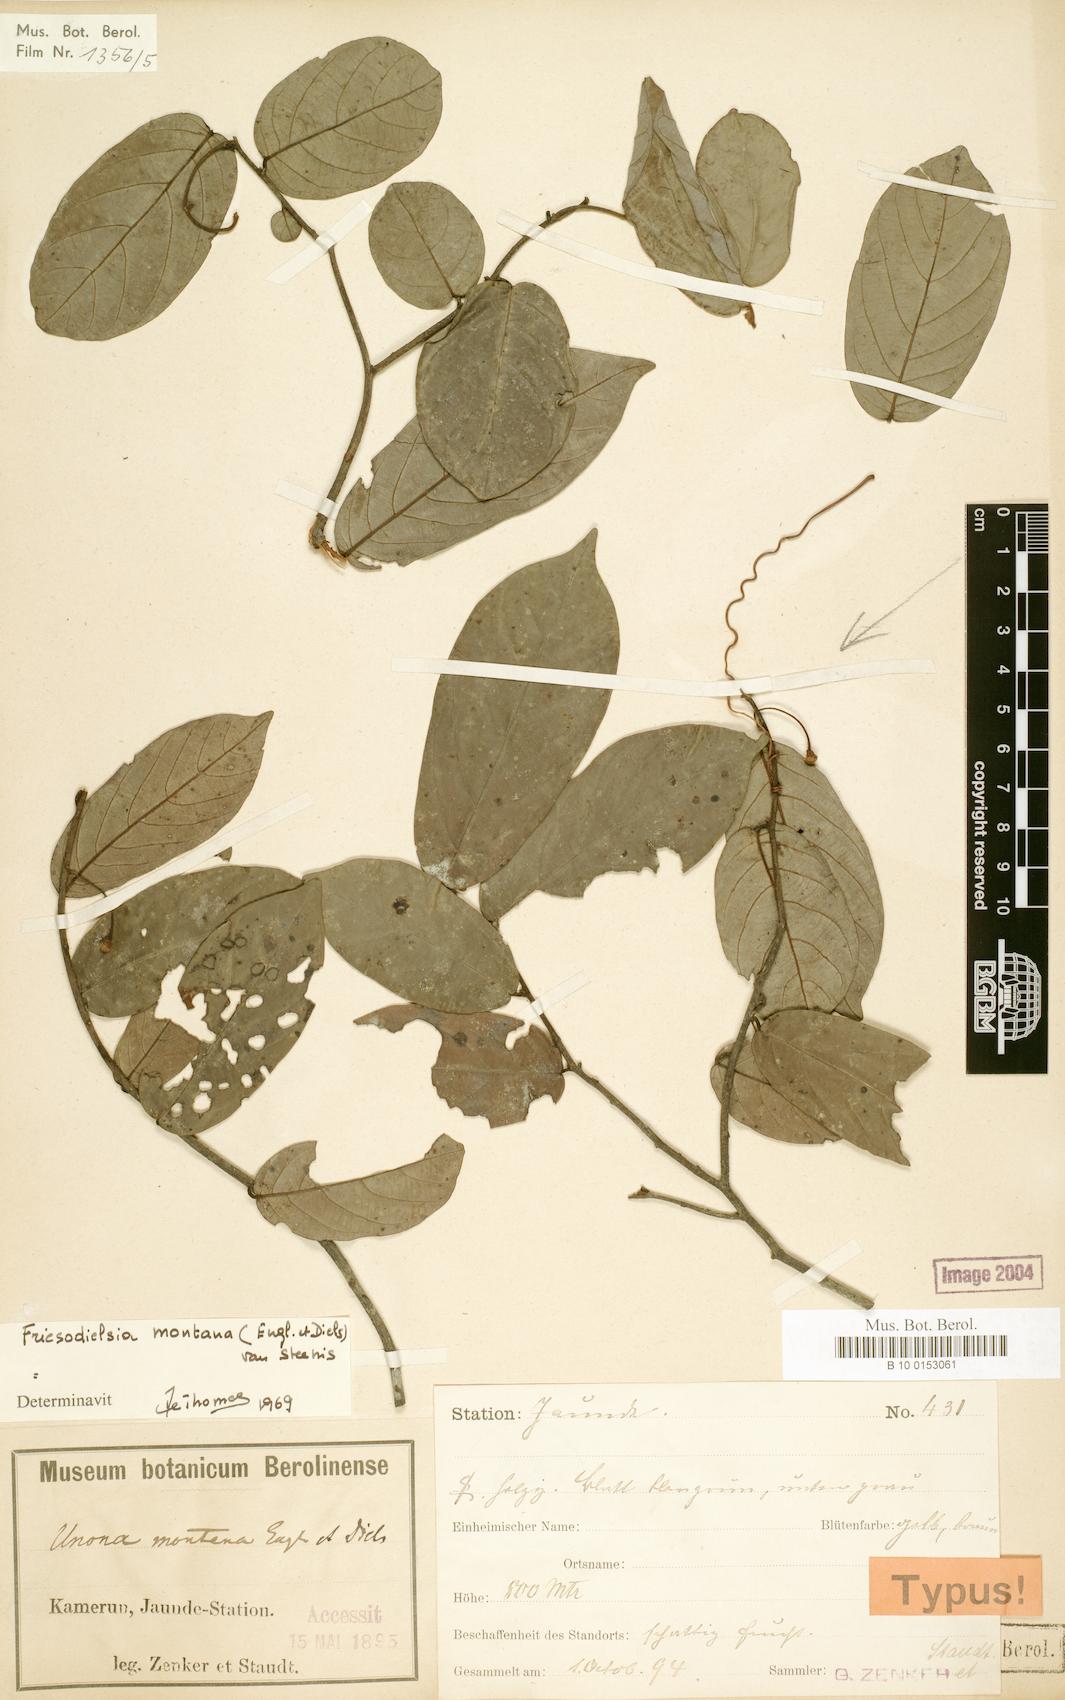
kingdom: Plantae
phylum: Tracheophyta
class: Magnoliopsida
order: Magnoliales
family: Annonaceae
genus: Friesodielsia
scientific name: Friesodielsia montana
